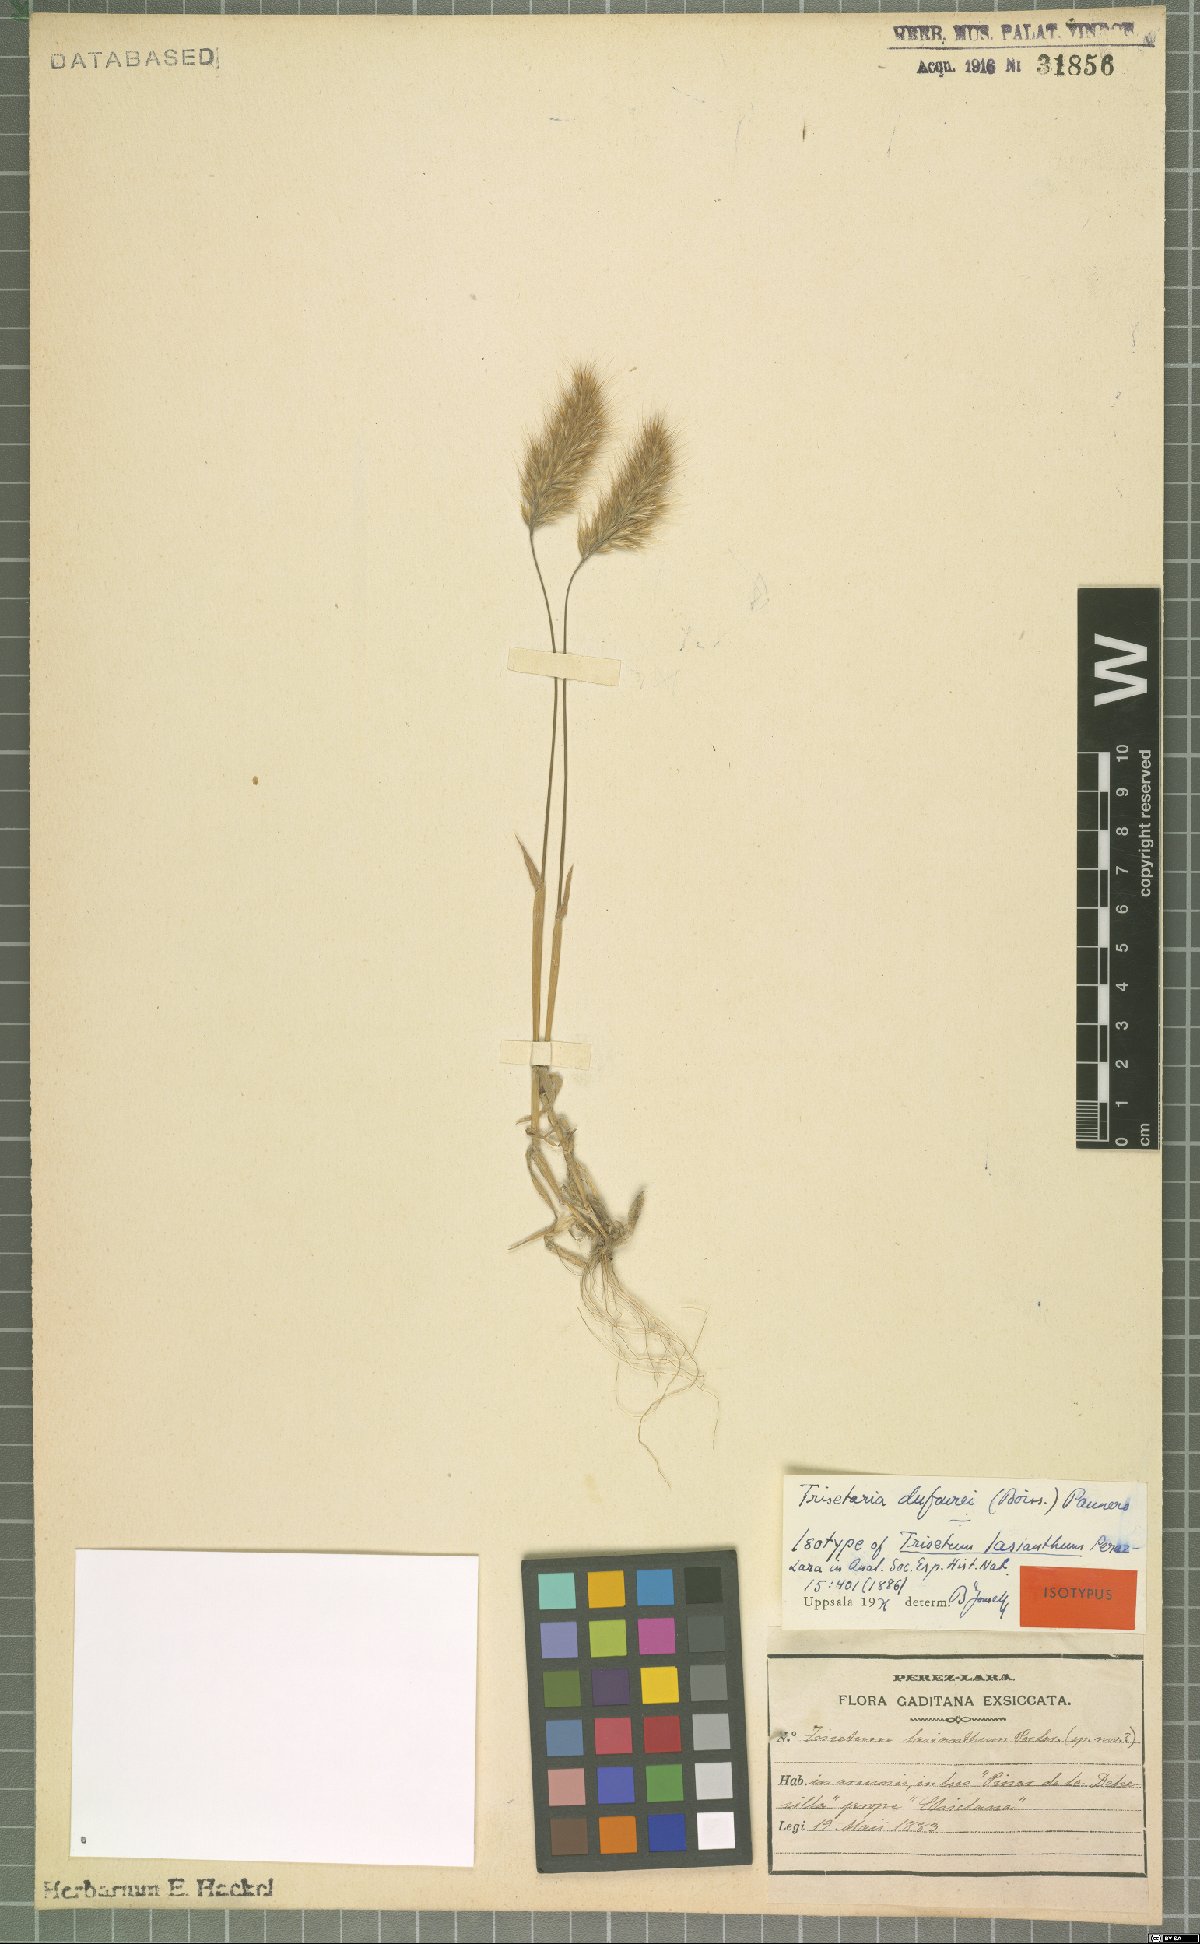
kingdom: Plantae
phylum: Tracheophyta
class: Liliopsida
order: Poales
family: Poaceae
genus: Trisetaria
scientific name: Trisetaria dufourei
